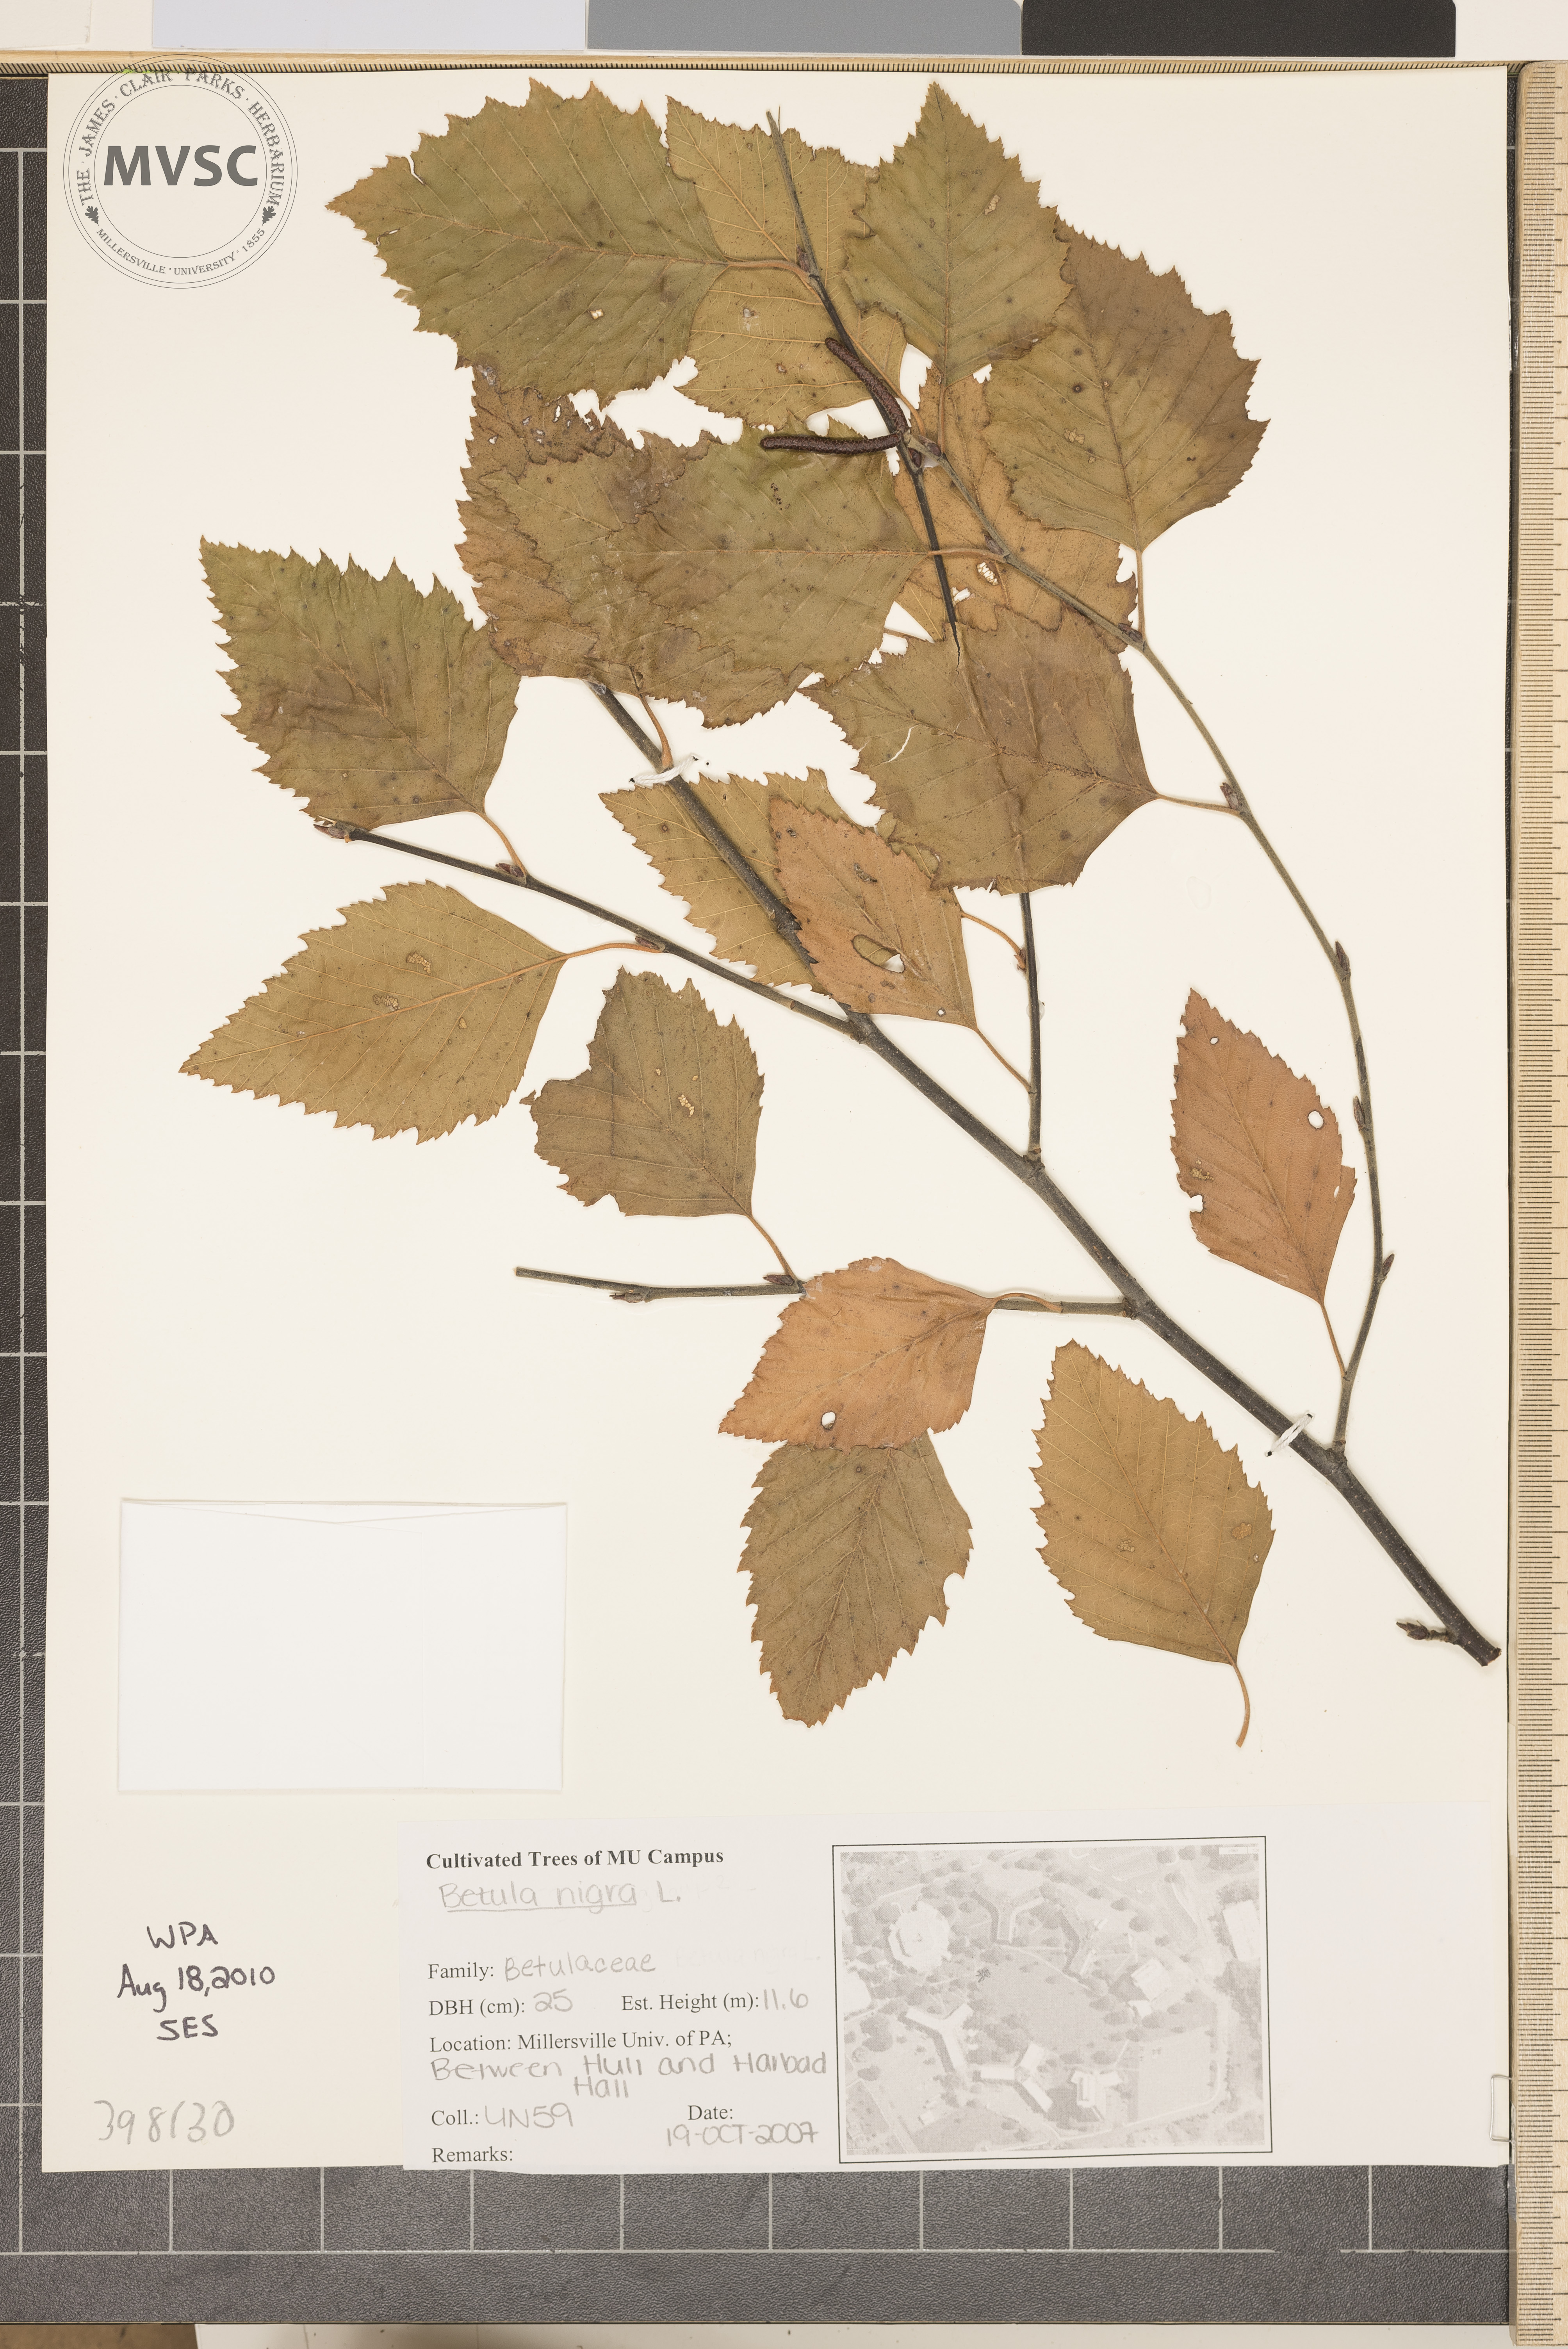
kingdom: Plantae
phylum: Tracheophyta
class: Magnoliopsida
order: Fagales
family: Betulaceae
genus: Betula
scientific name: Betula nigra
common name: River birch
